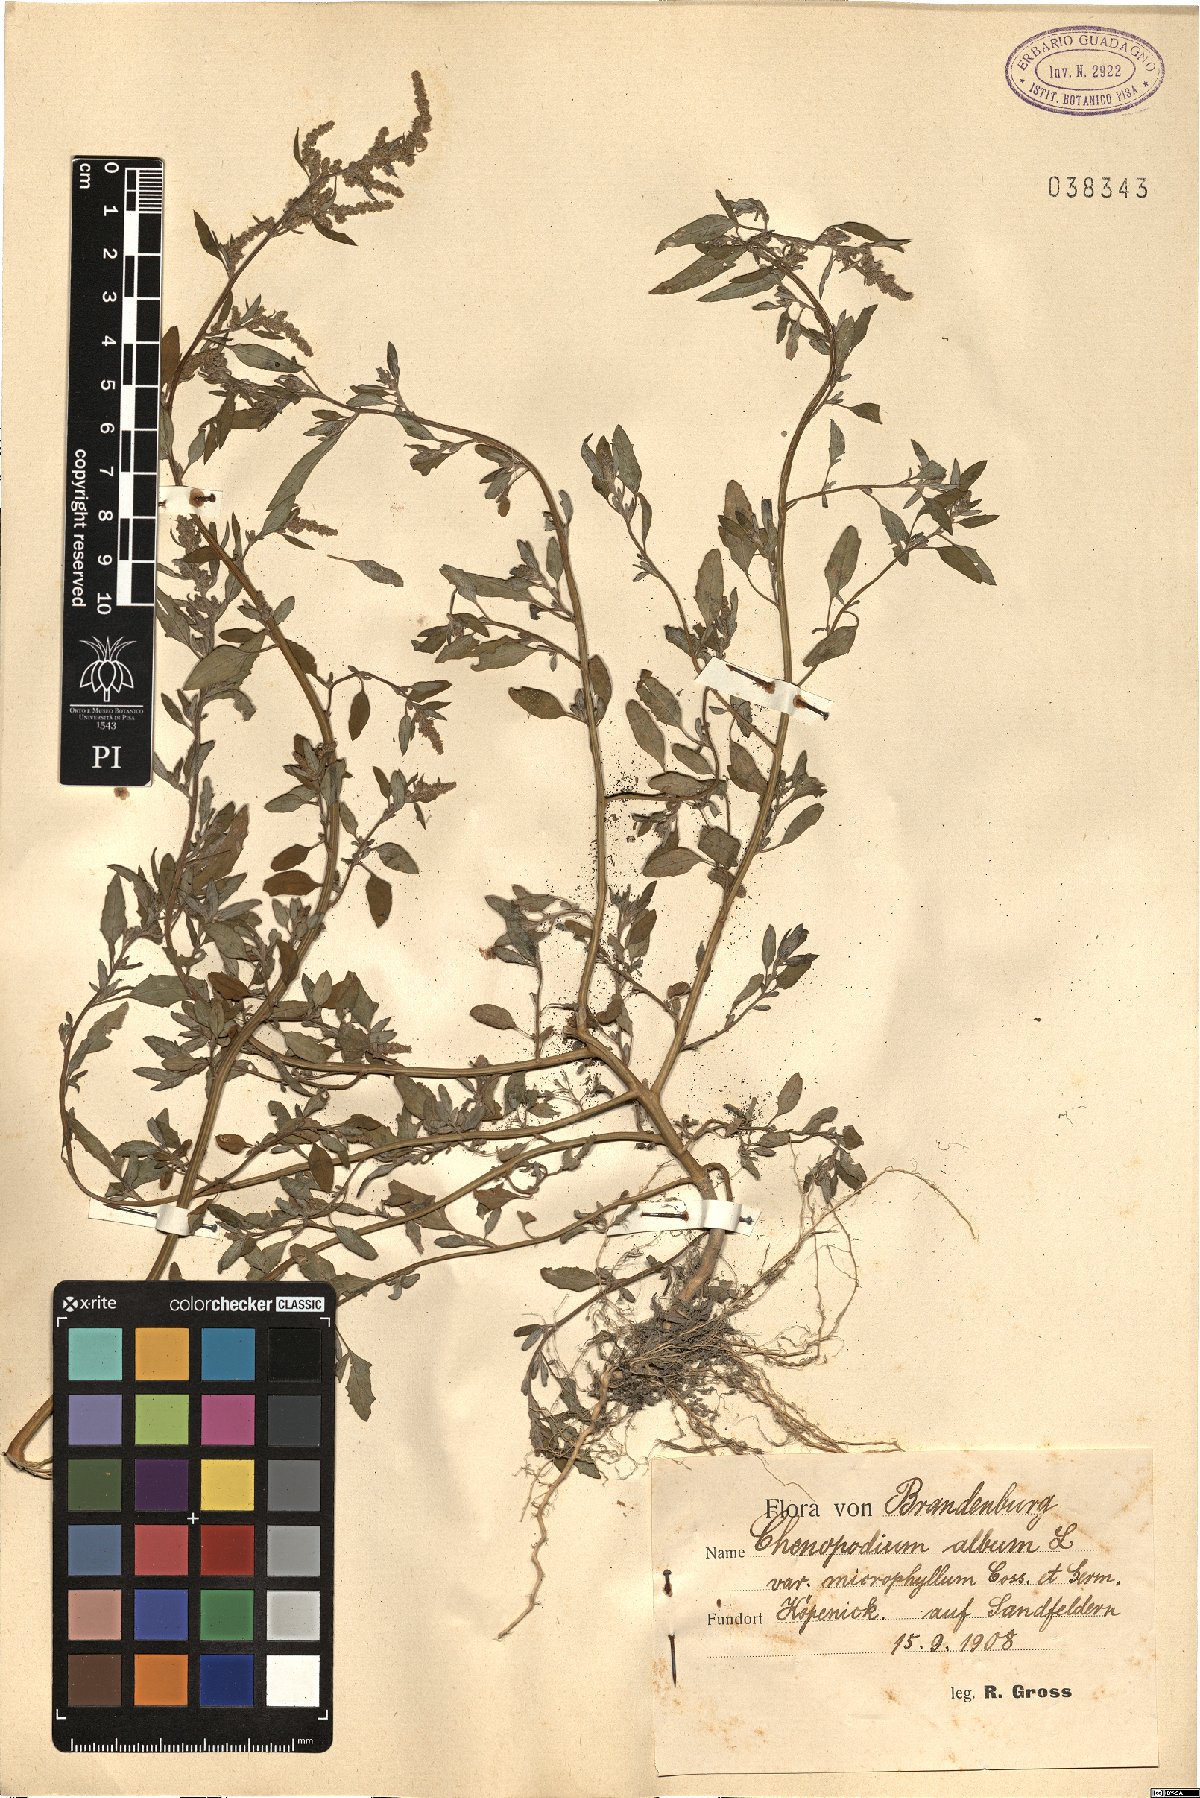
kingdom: Plantae
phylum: Tracheophyta
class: Magnoliopsida
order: Caryophyllales
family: Amaranthaceae
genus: Chenopodium
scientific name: Chenopodium striatiforme
